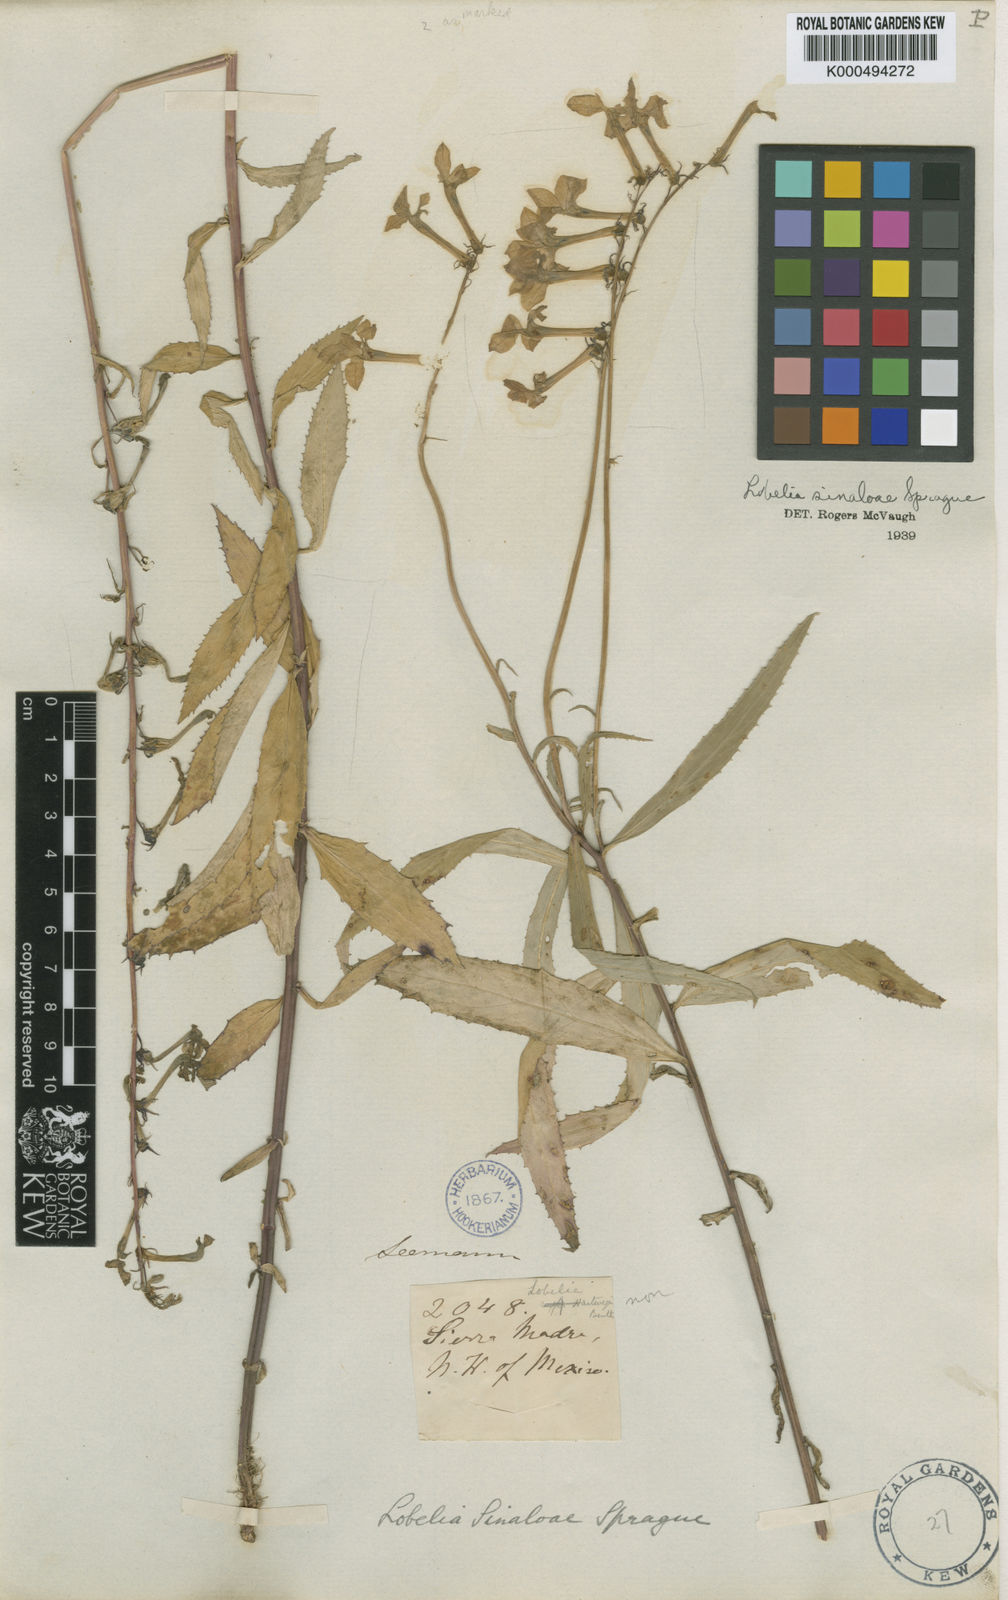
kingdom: Plantae
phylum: Tracheophyta
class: Magnoliopsida
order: Asterales
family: Campanulaceae
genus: Lobelia
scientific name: Lobelia sinaloae
